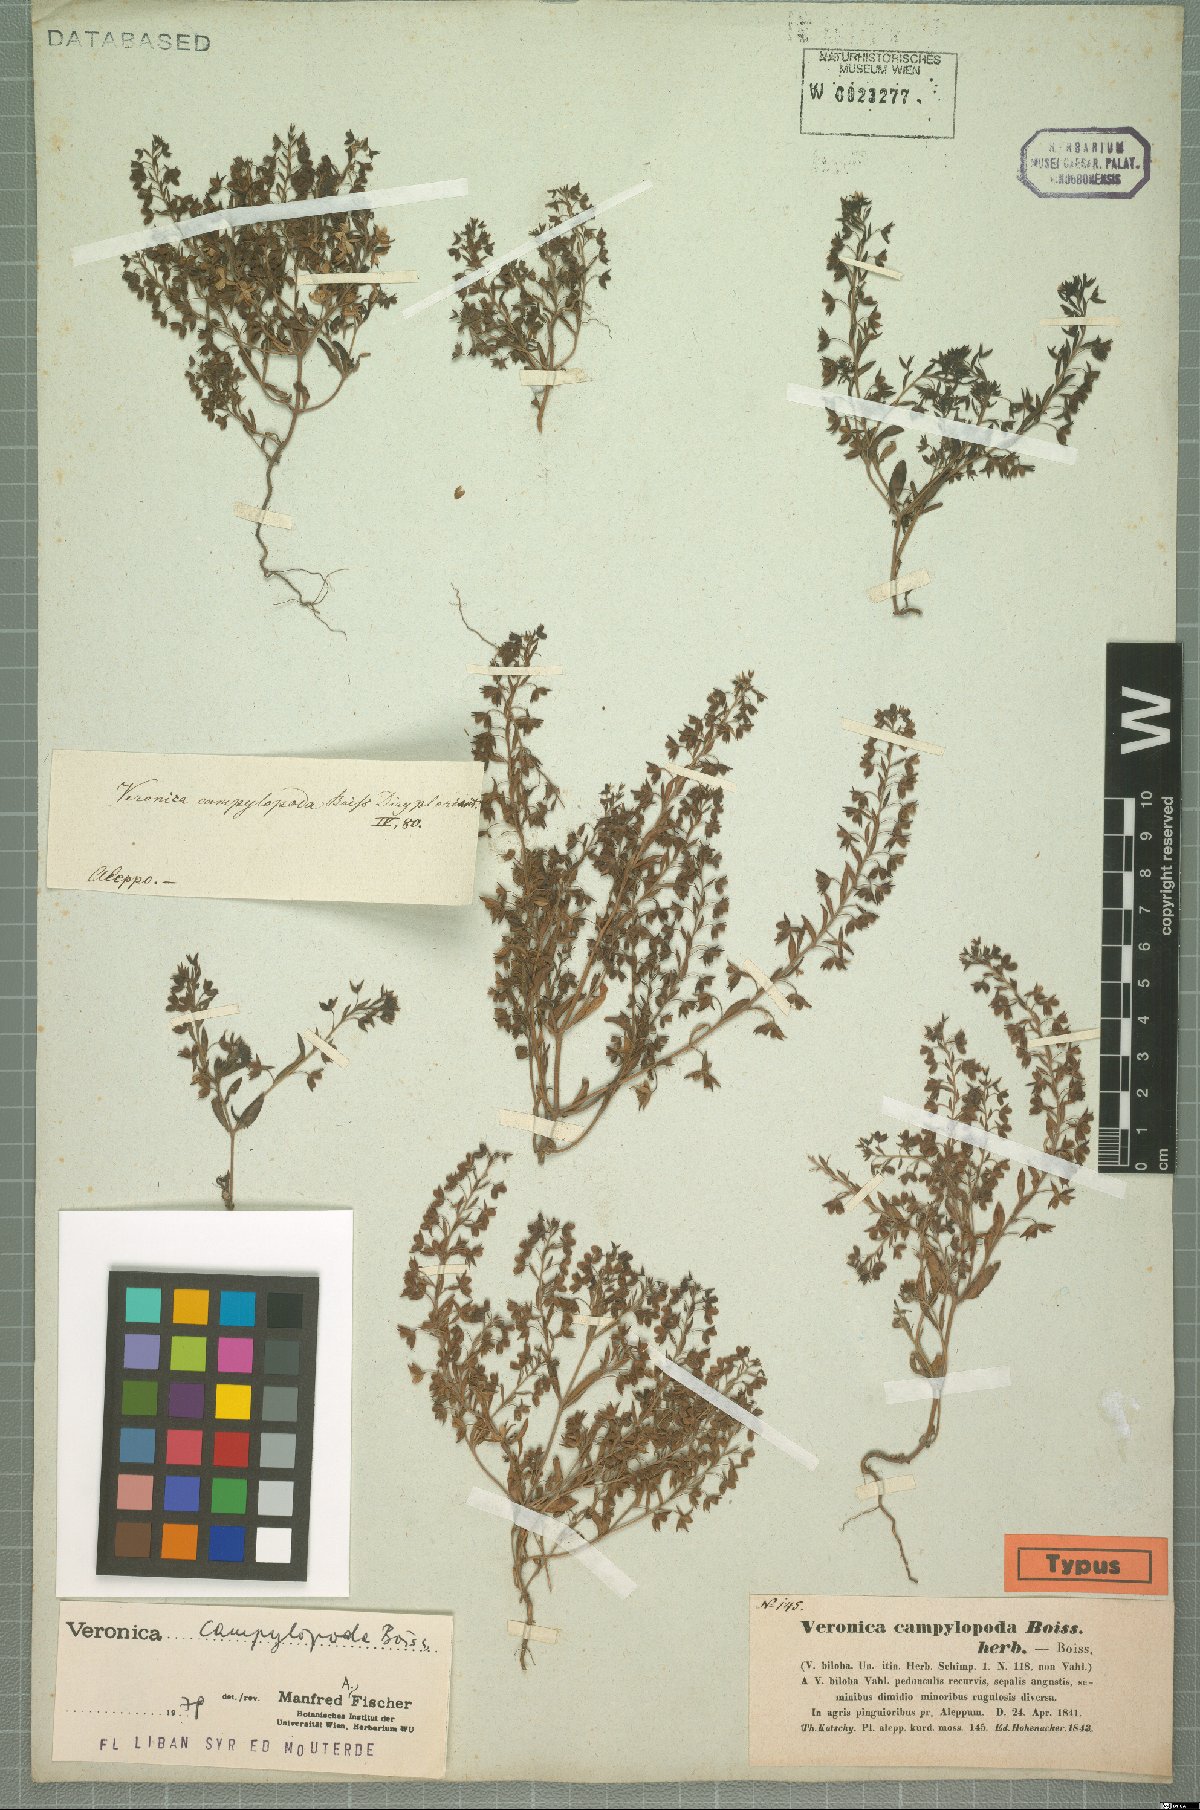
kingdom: Plantae
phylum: Tracheophyta
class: Magnoliopsida
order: Lamiales
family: Scrophulariaceae
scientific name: Scrophulariaceae
